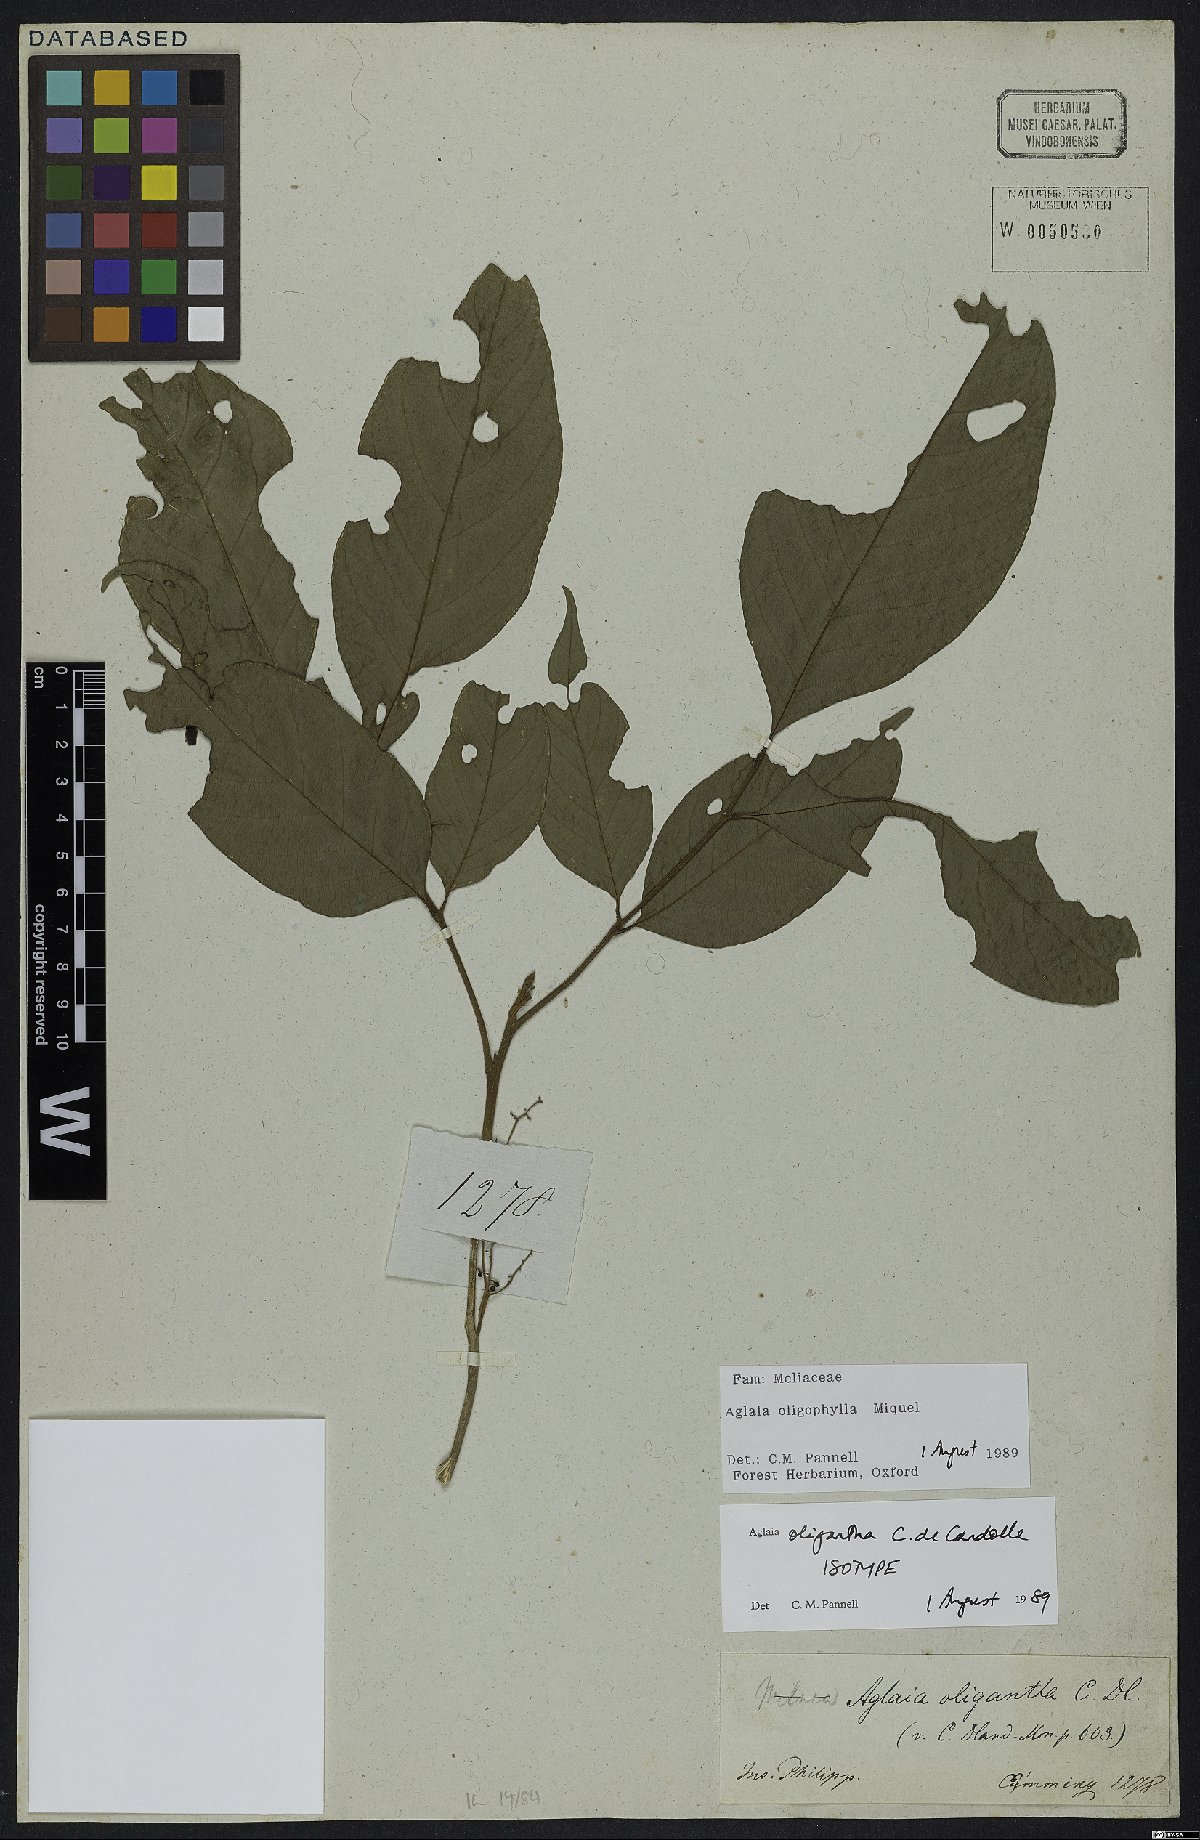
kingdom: Plantae
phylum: Tracheophyta
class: Magnoliopsida
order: Sapindales
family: Meliaceae
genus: Aglaia
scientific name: Aglaia oligophylla
